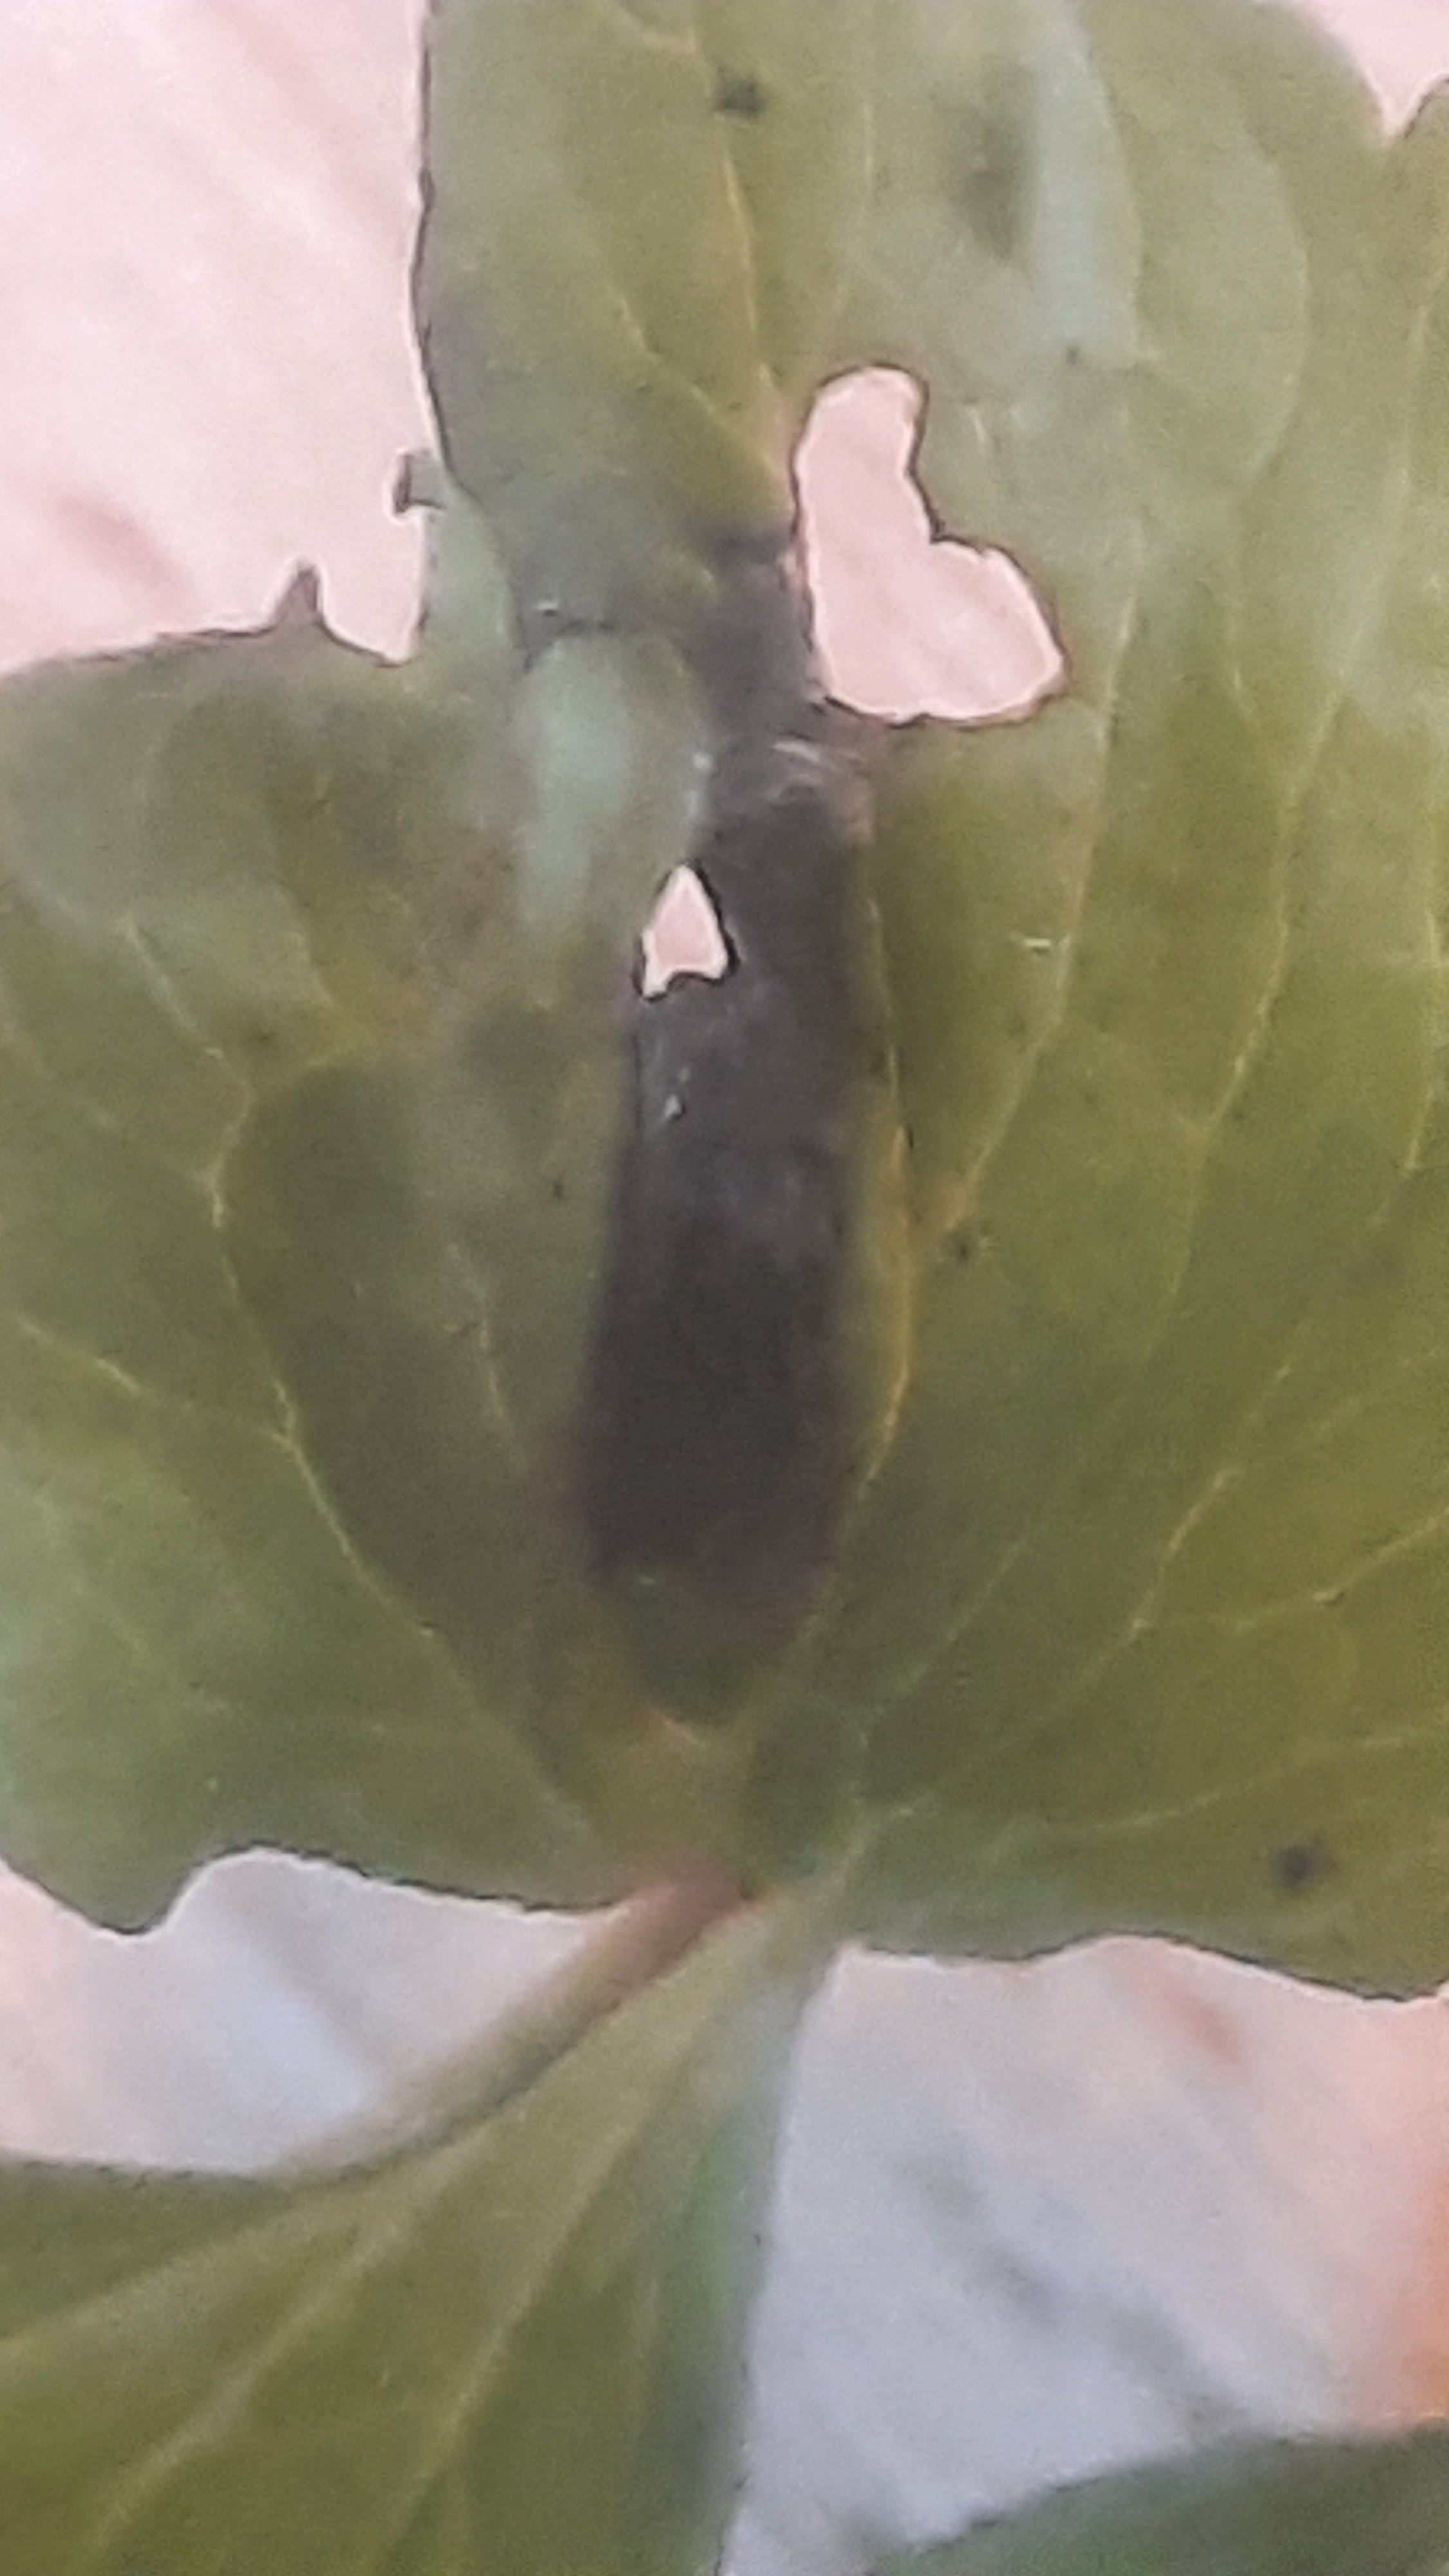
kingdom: Fungi
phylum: Basidiomycota
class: Ustilaginomycetes
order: Urocystidales
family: Urocystidaceae
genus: Urocystis
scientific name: Urocystis anemones
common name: anemone-brand
